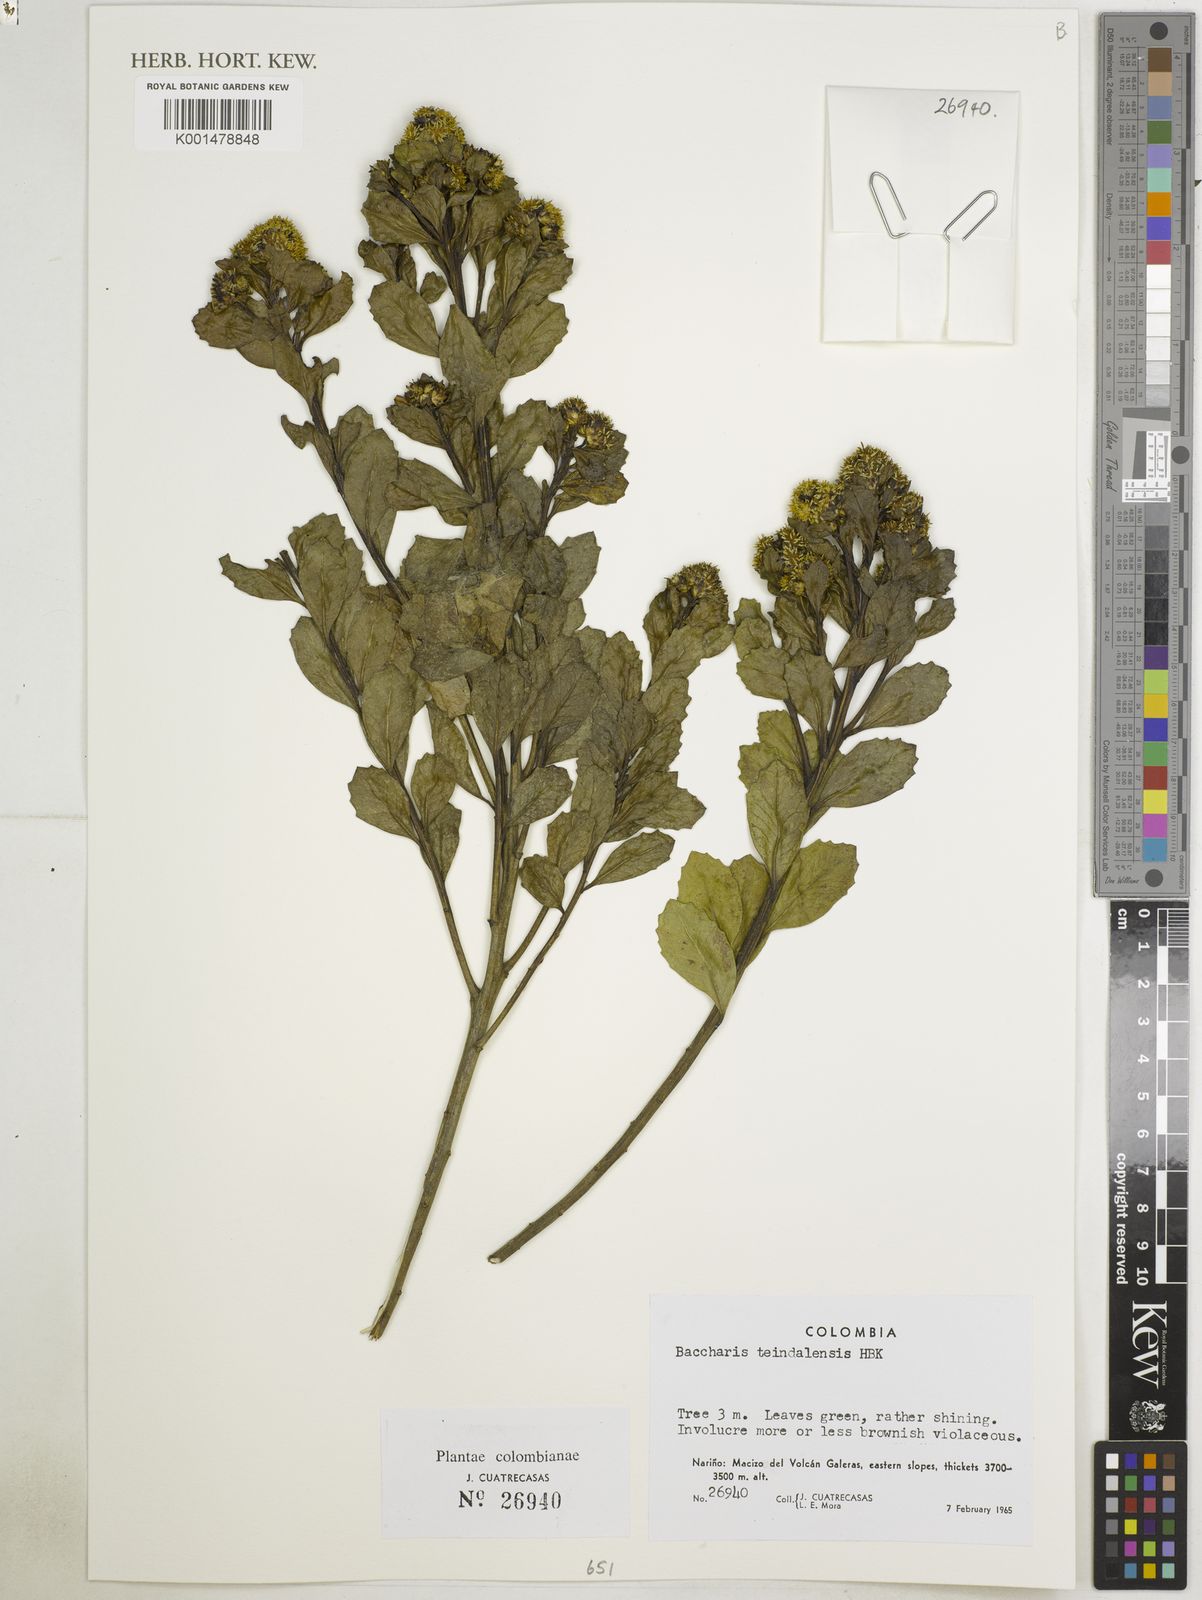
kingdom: Plantae
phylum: Tracheophyta
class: Magnoliopsida
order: Asterales
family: Asteraceae
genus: Baccharis
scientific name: Baccharis teindalensis
